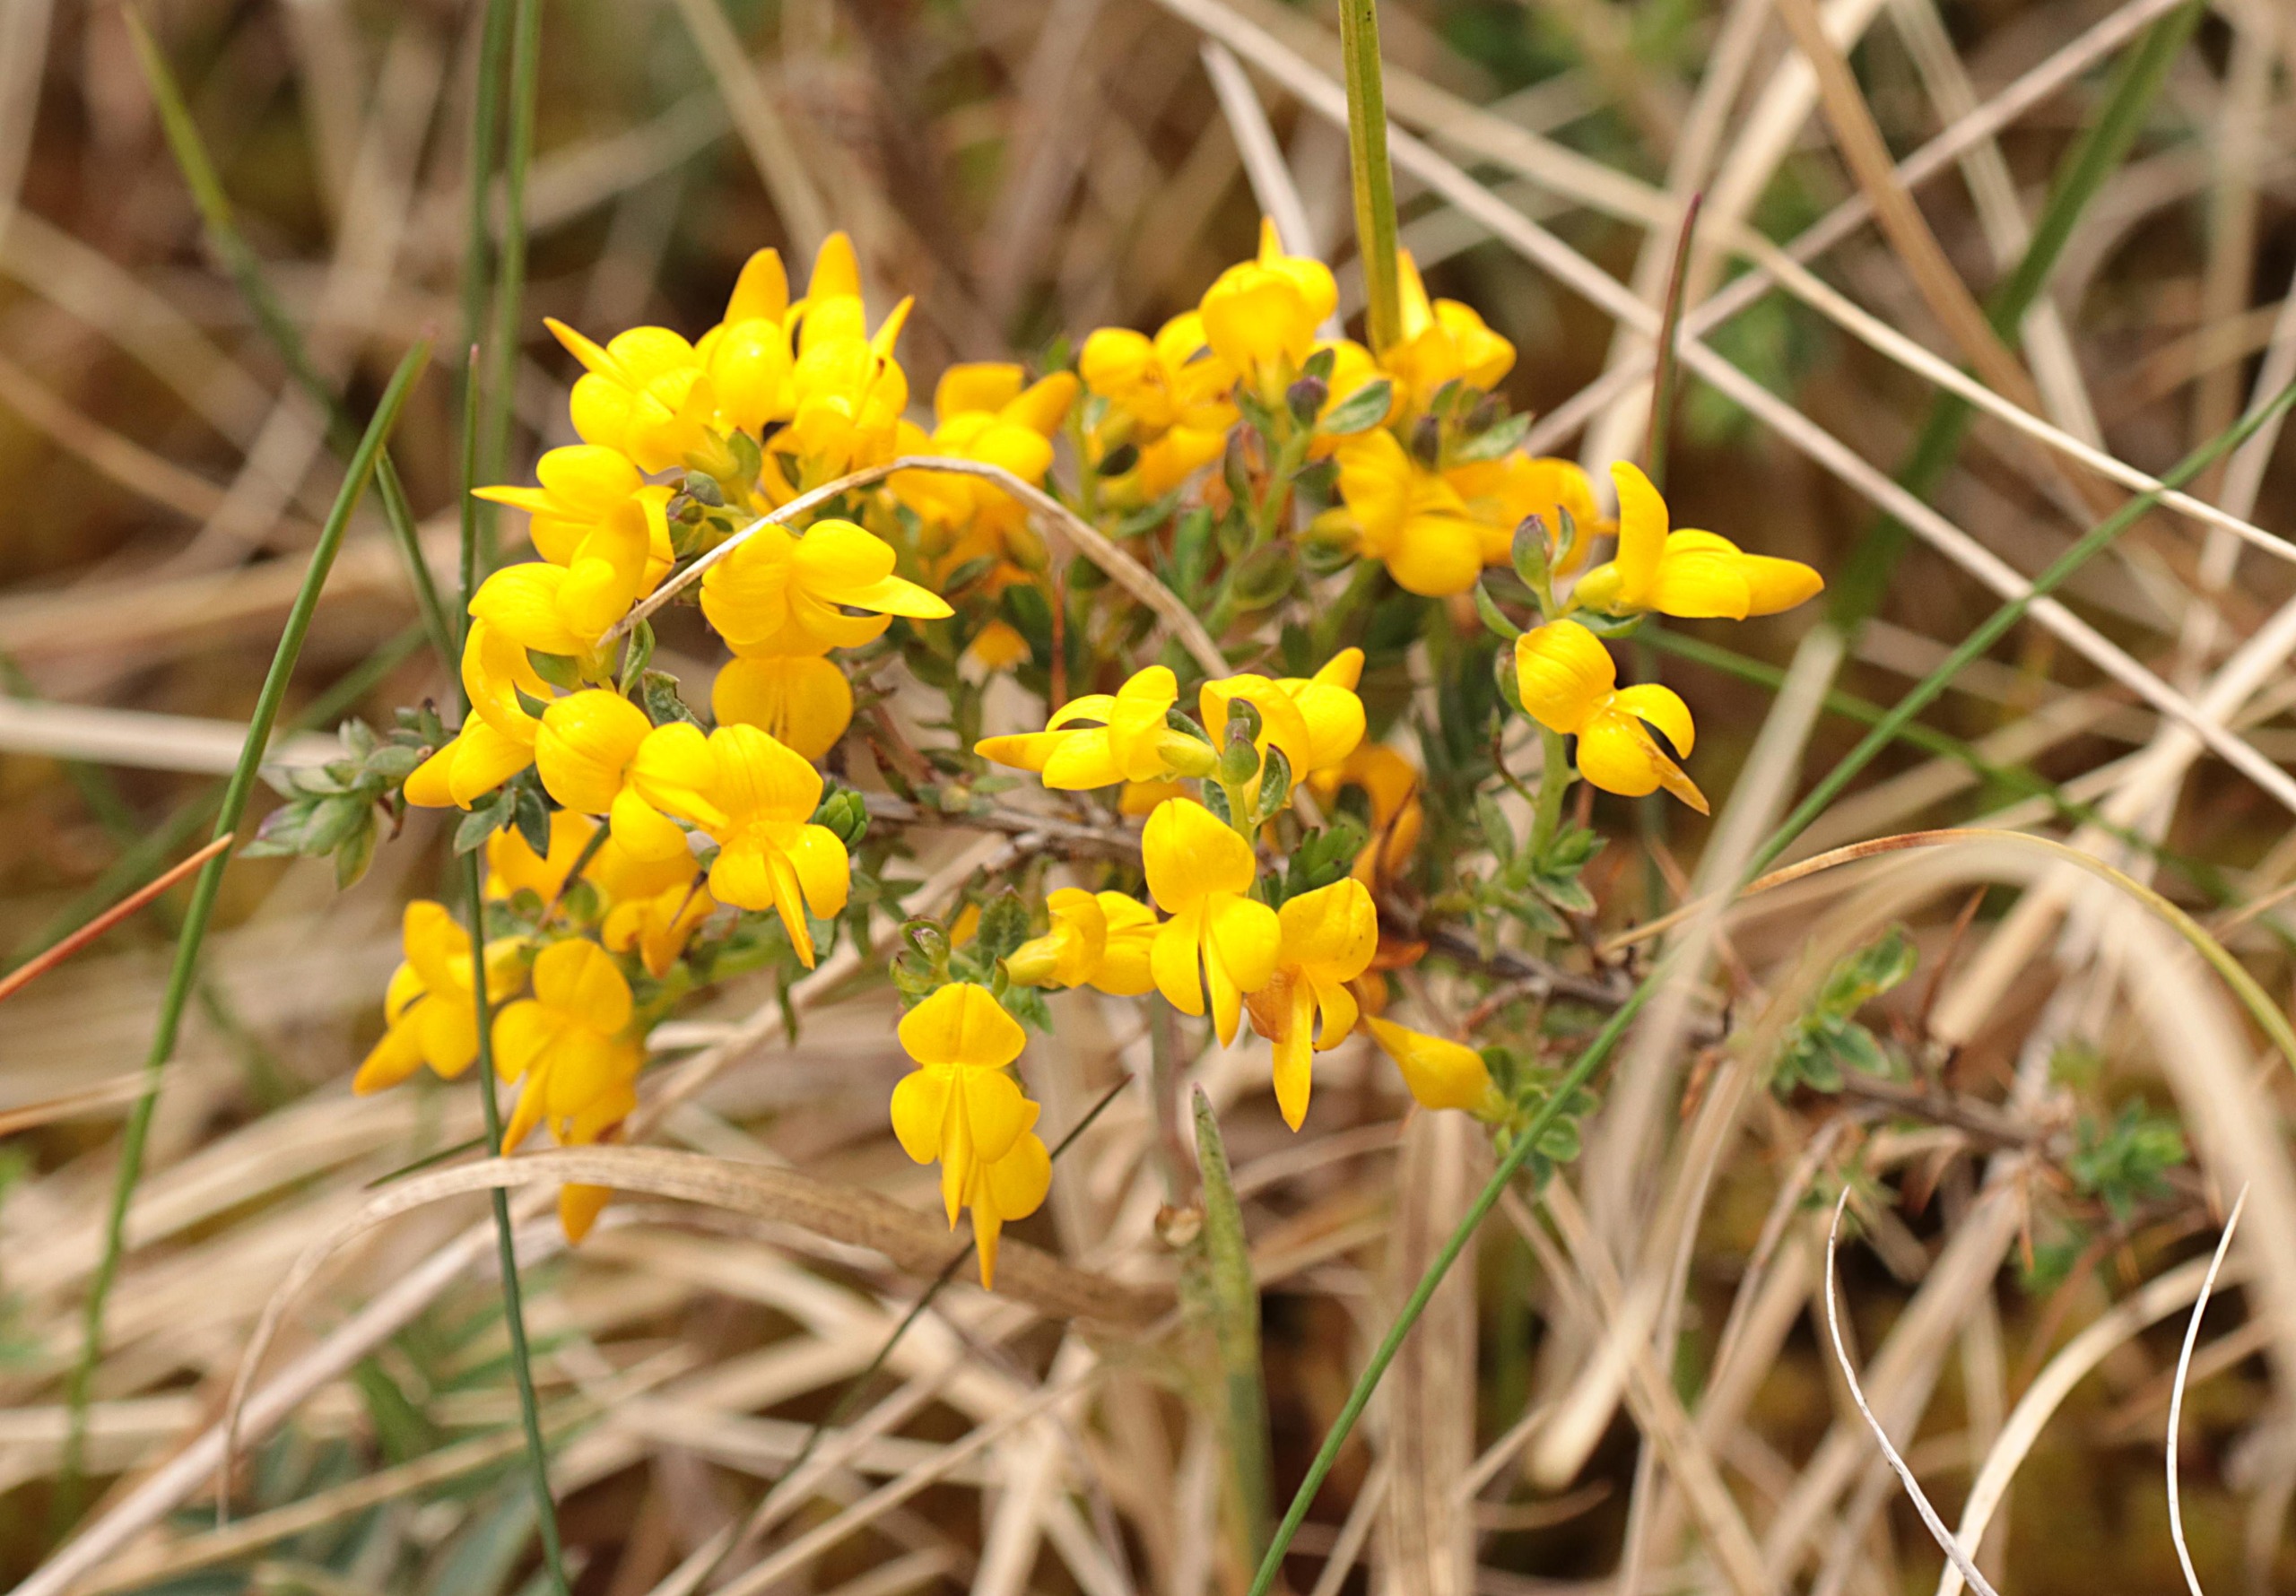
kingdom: Plantae
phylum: Tracheophyta
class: Magnoliopsida
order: Fabales
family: Fabaceae
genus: Genista
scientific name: Genista anglica
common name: Engelsk visse
